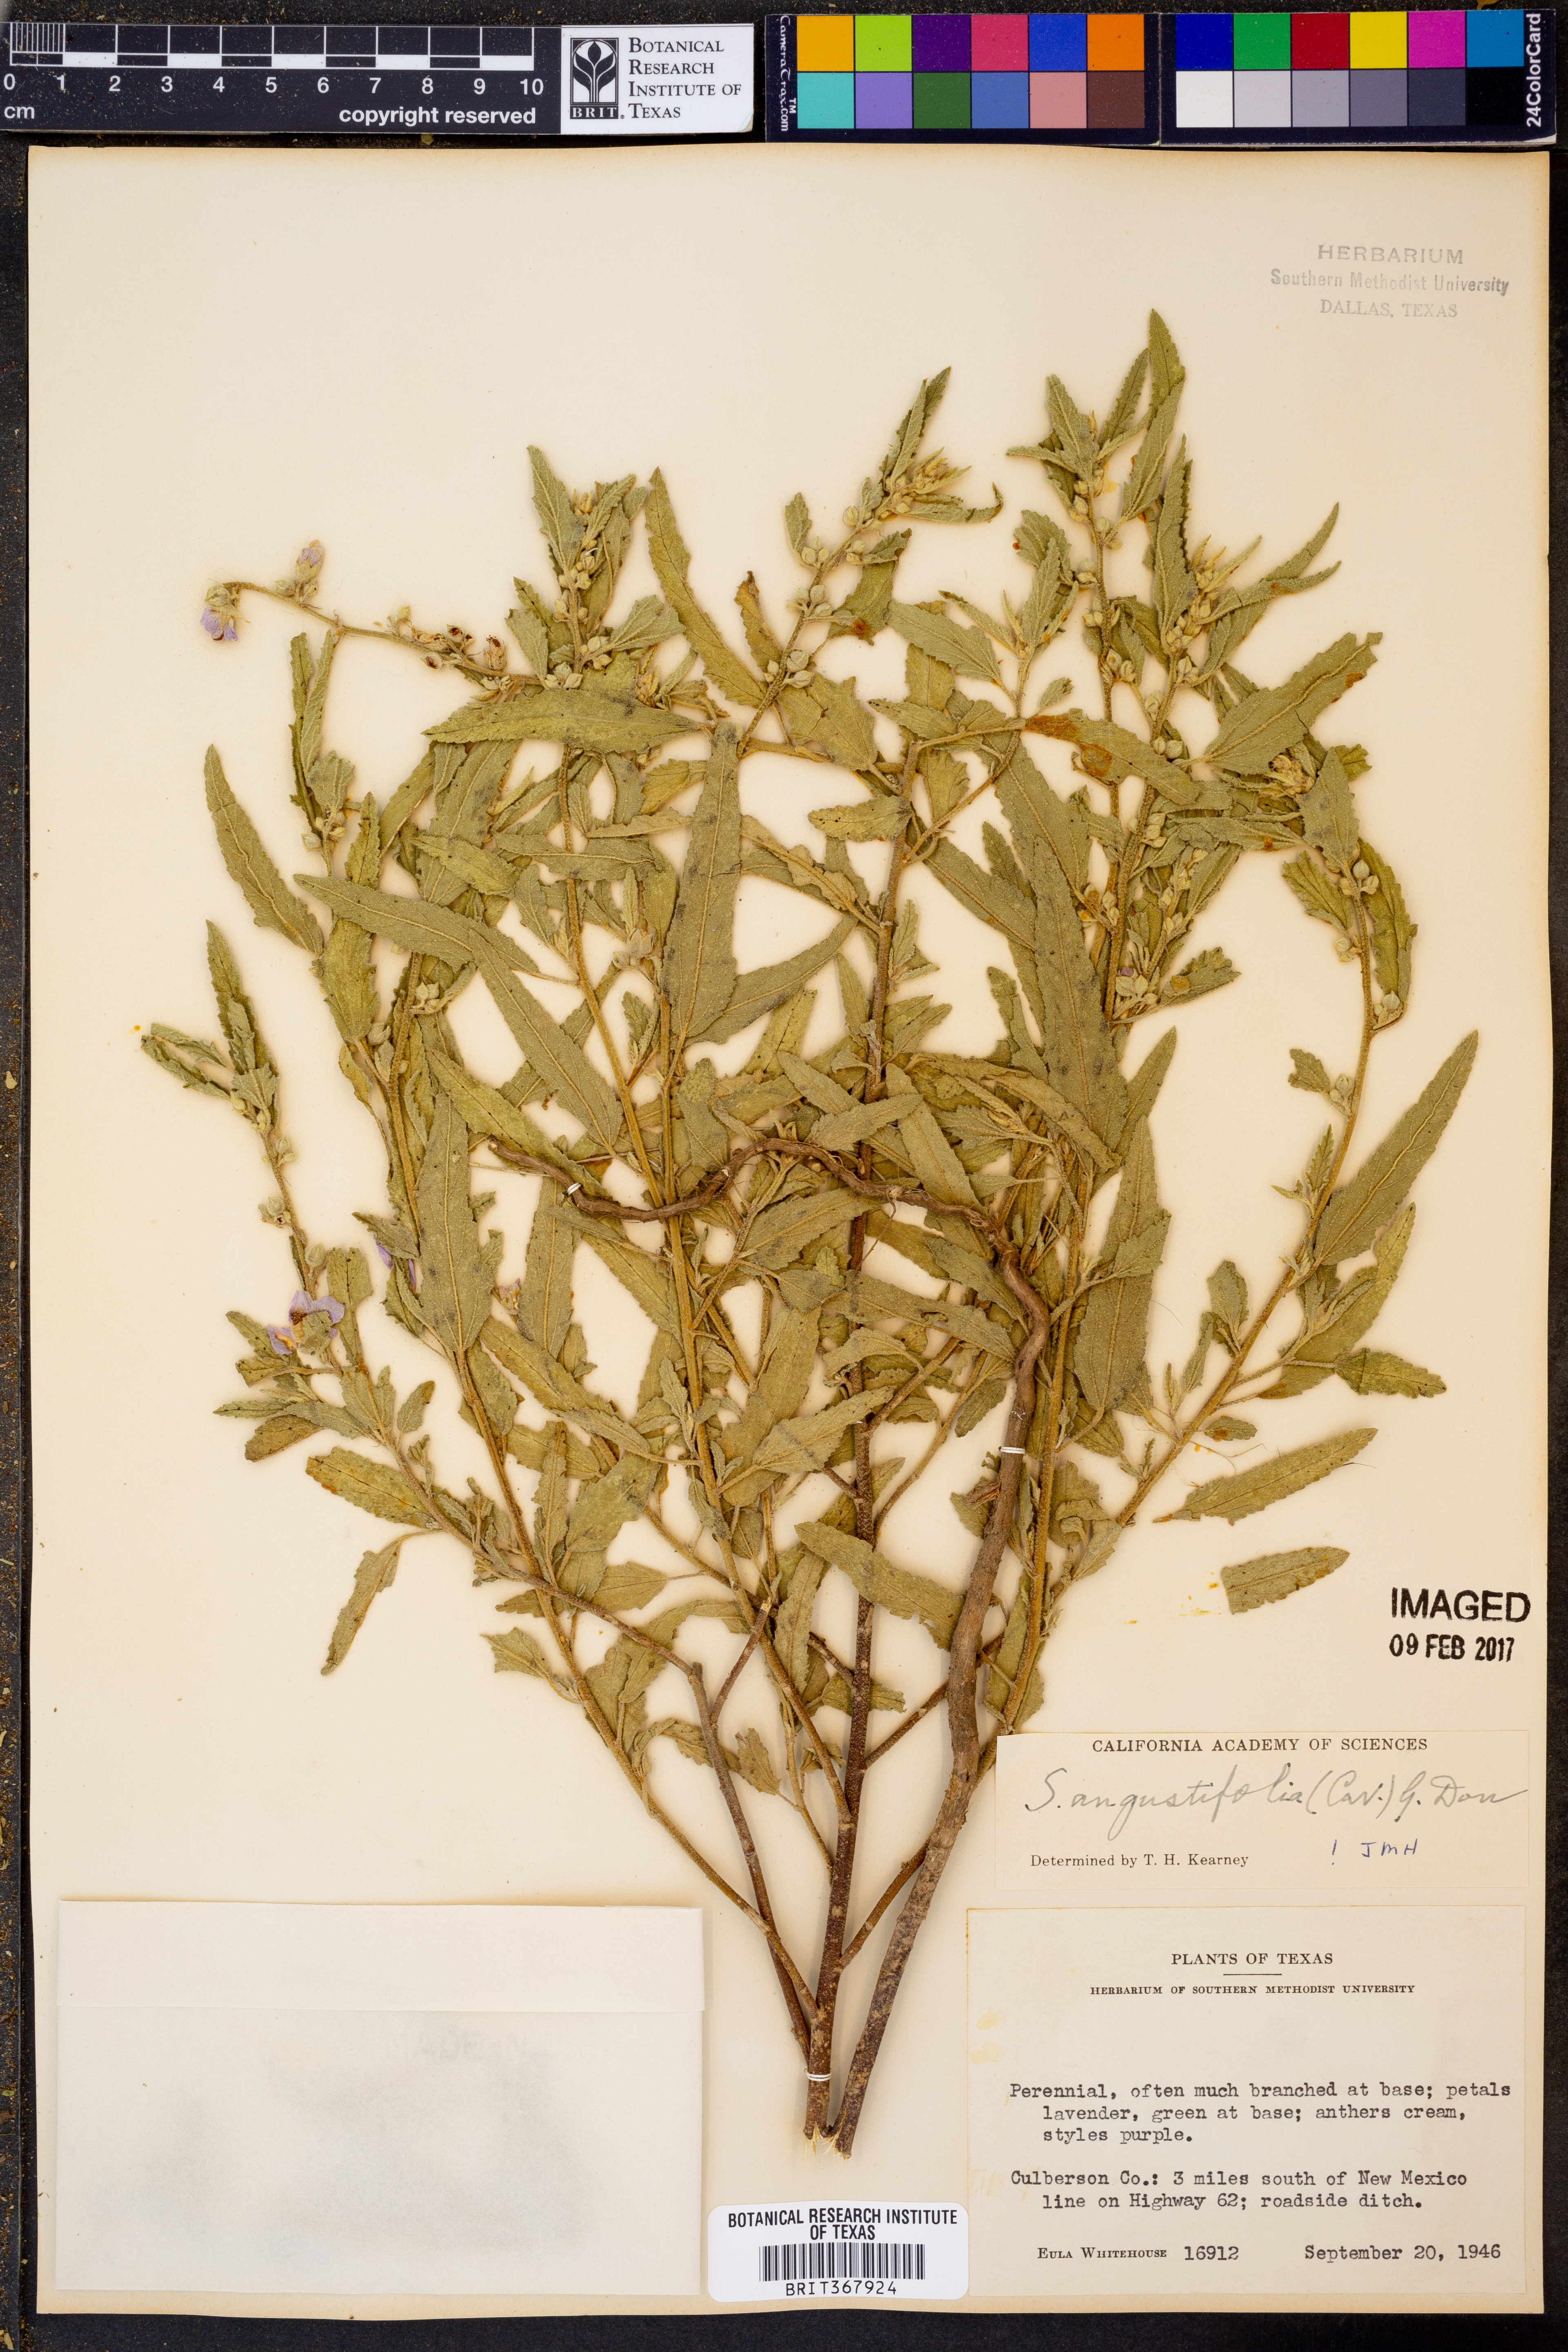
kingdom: Plantae
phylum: Tracheophyta
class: Magnoliopsida
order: Malvales
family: Malvaceae
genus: Sida
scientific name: Sida angustifolia
